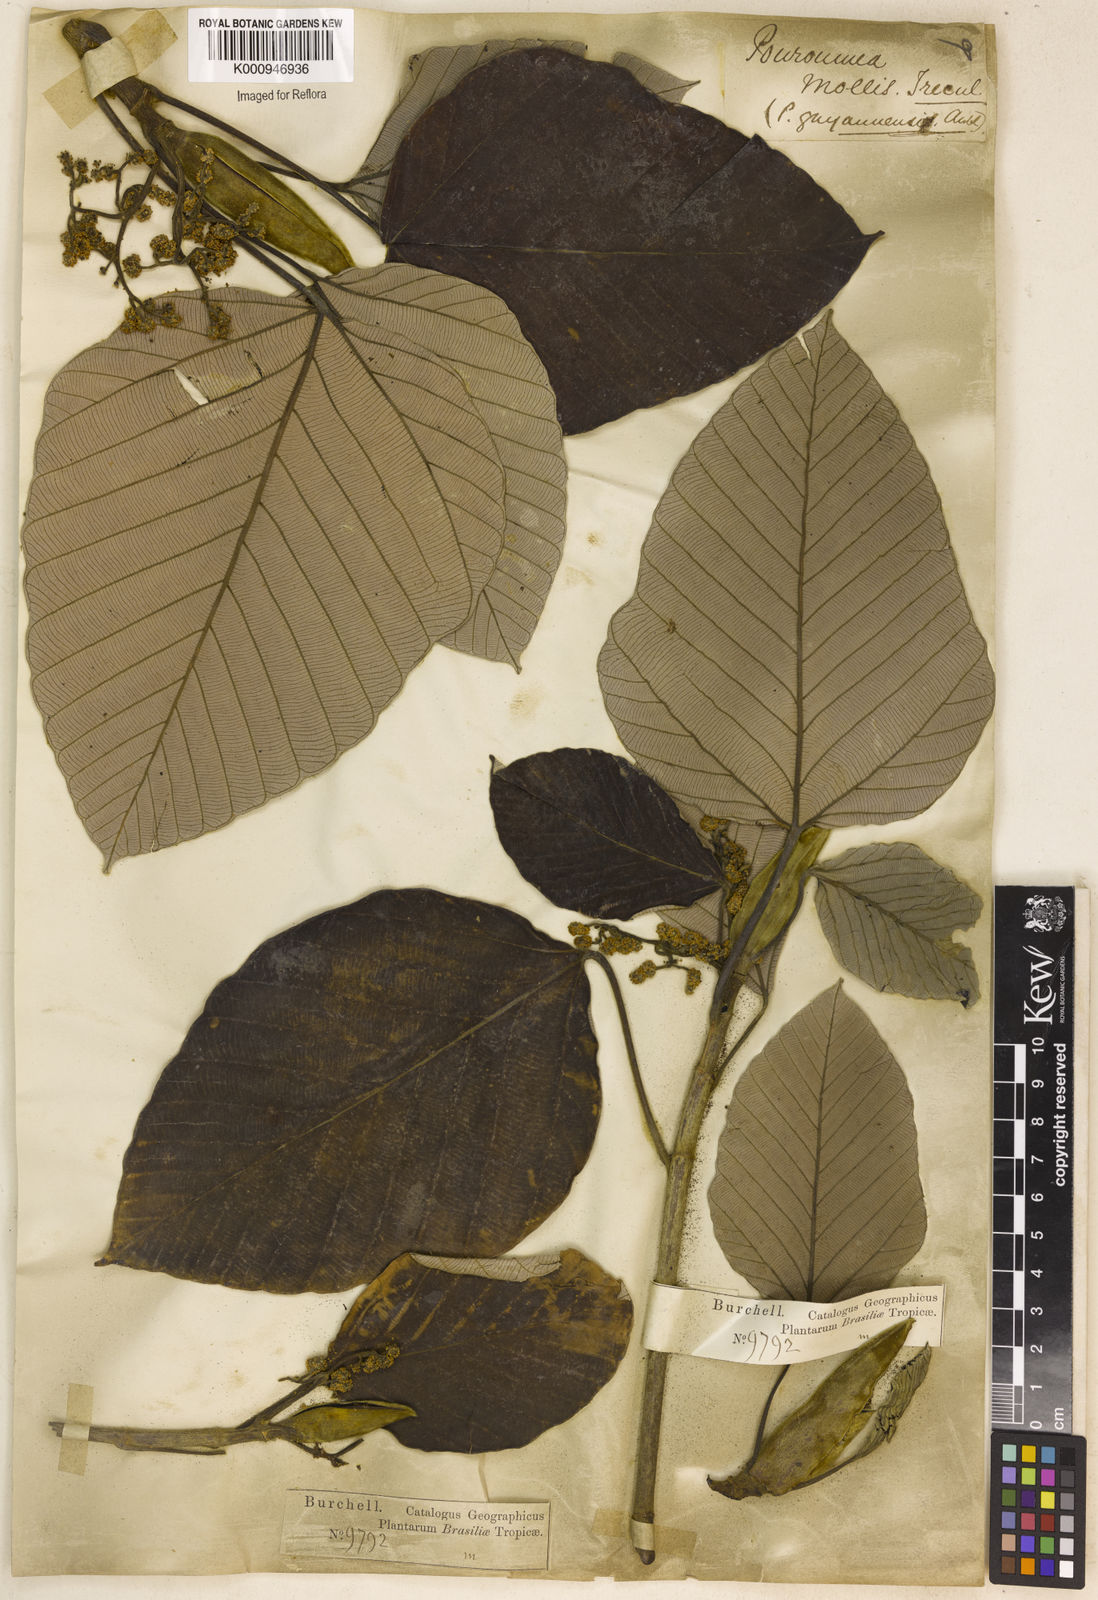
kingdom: Plantae
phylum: Tracheophyta
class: Magnoliopsida
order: Rosales
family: Urticaceae
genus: Pourouma
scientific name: Pourouma
